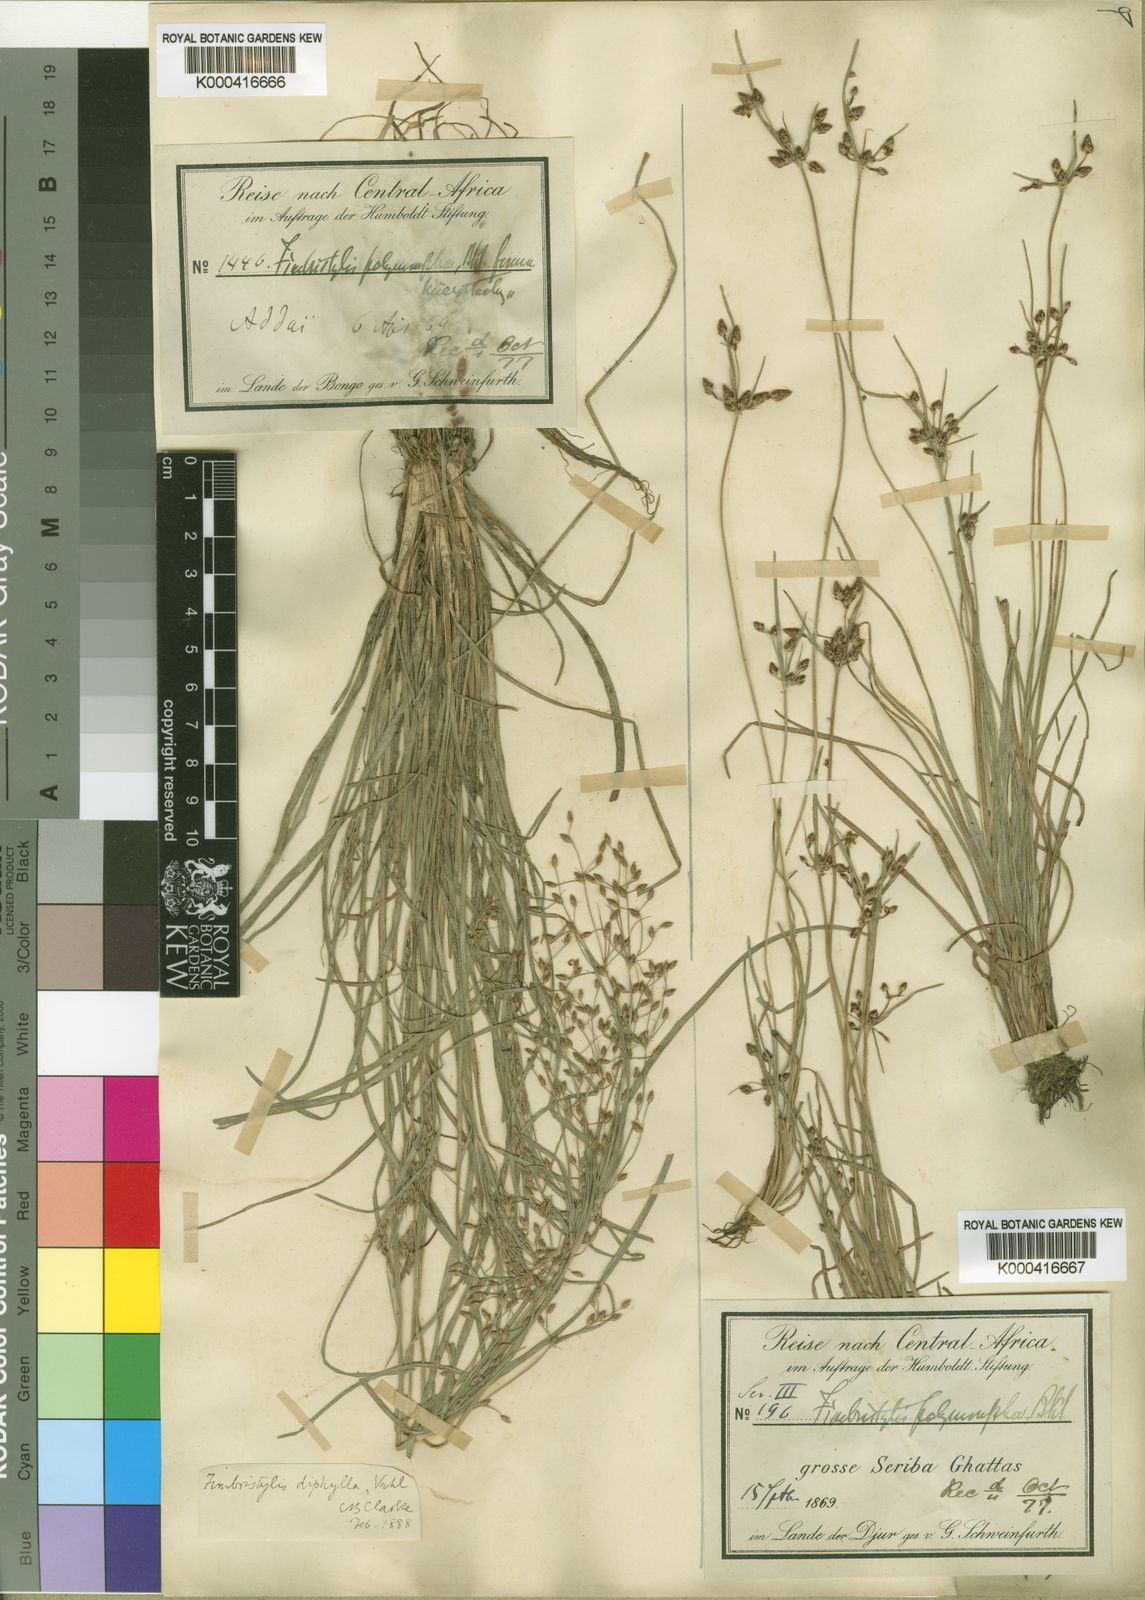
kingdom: Plantae
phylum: Tracheophyta
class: Liliopsida
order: Poales
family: Cyperaceae
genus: Fimbristylis
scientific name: Fimbristylis dichotoma
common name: Forked fimbry
